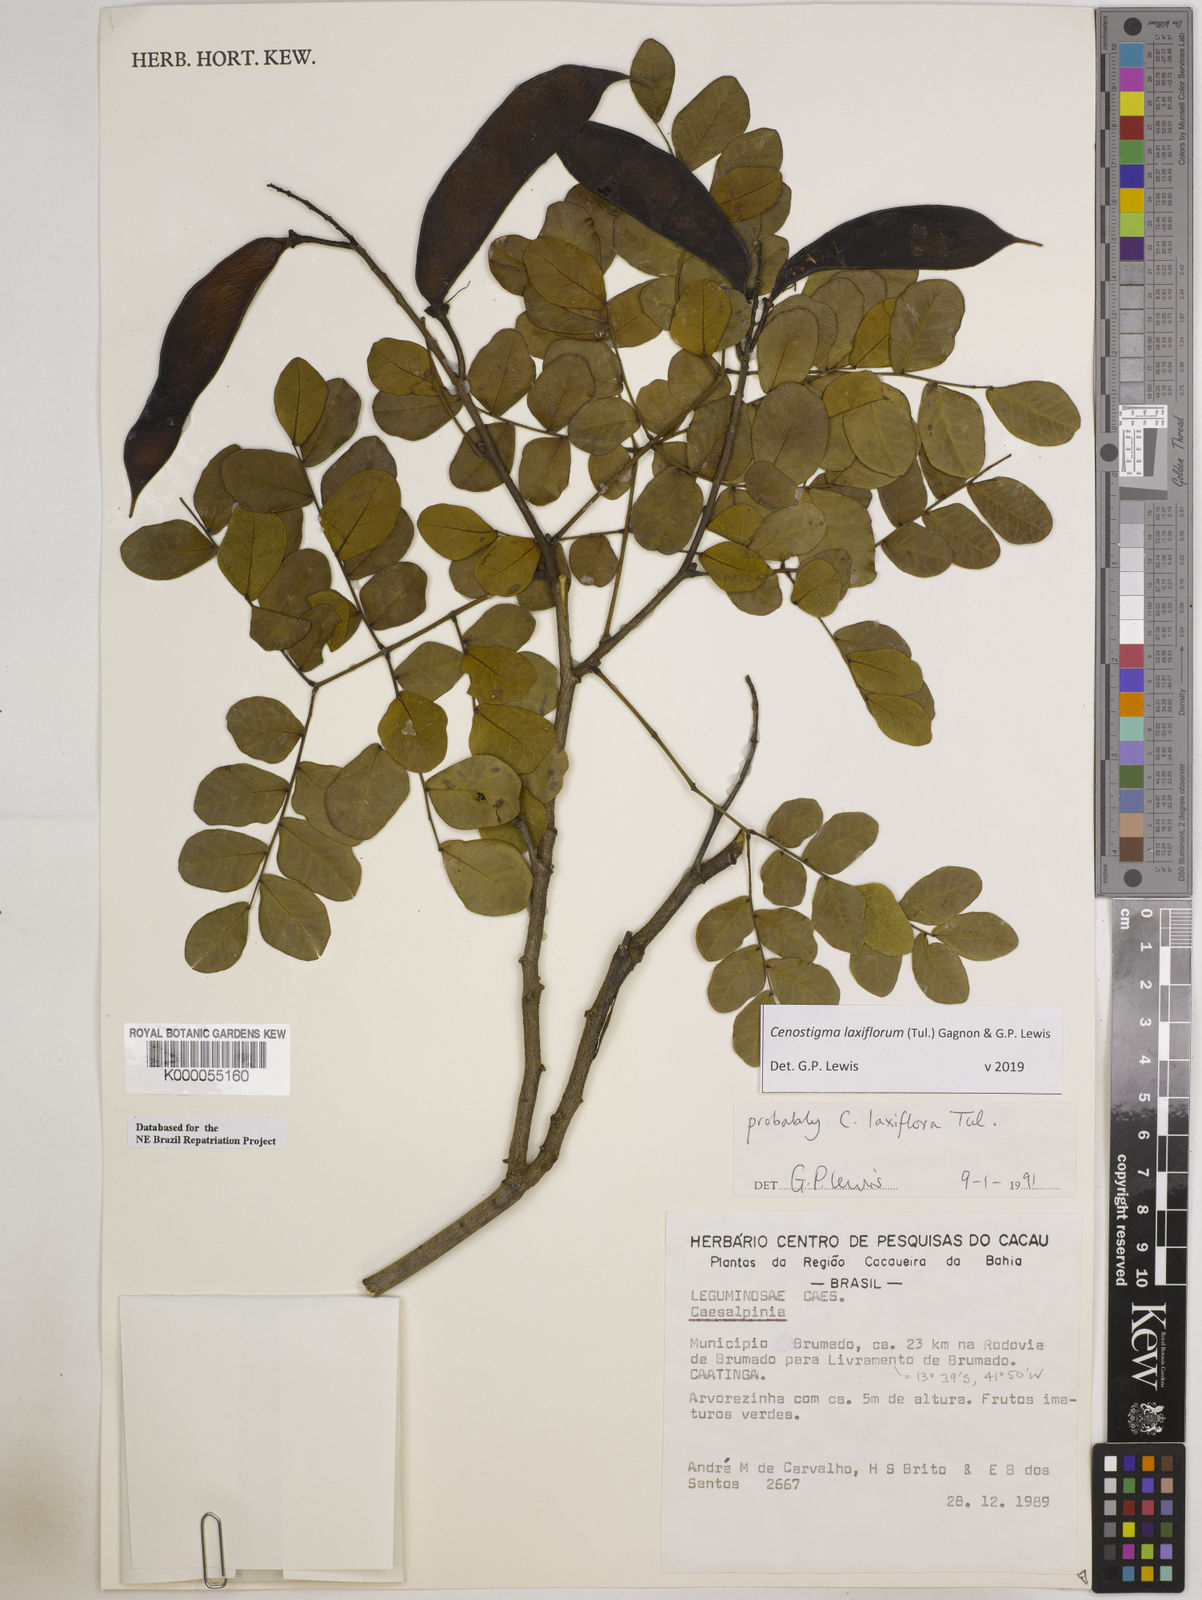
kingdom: Plantae
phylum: Tracheophyta
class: Magnoliopsida
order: Fabales
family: Fabaceae
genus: Cenostigma
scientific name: Cenostigma laxiflorum
